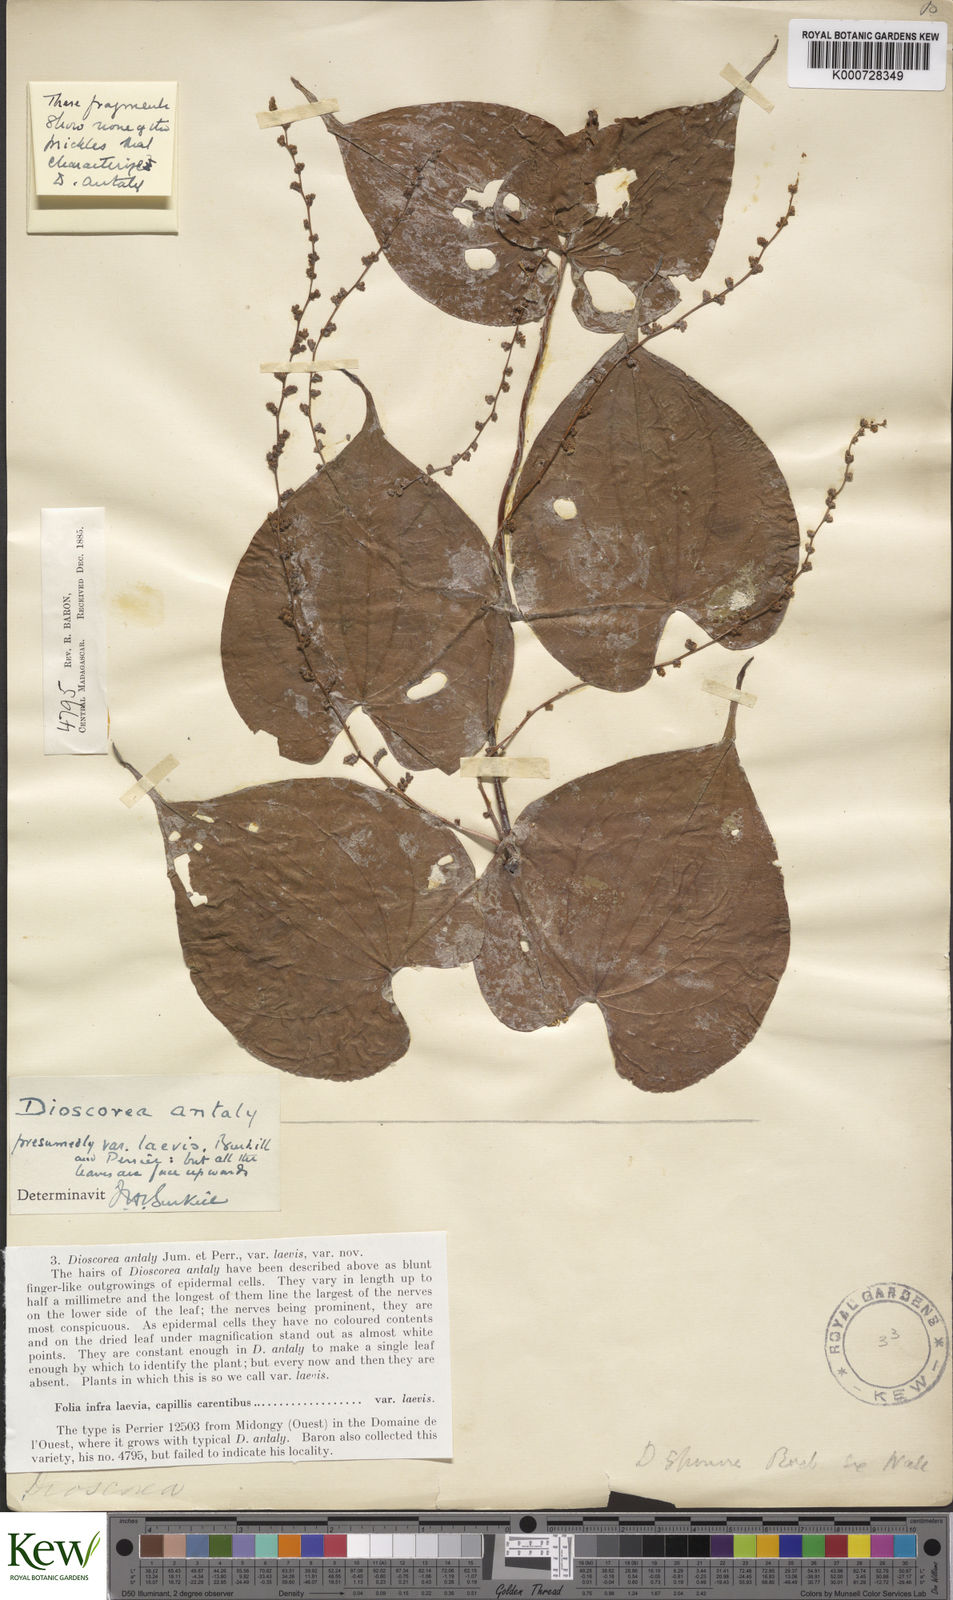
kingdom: Plantae
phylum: Tracheophyta
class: Liliopsida
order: Dioscoreales
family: Dioscoreaceae
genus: Dioscorea
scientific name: Dioscorea antaly
